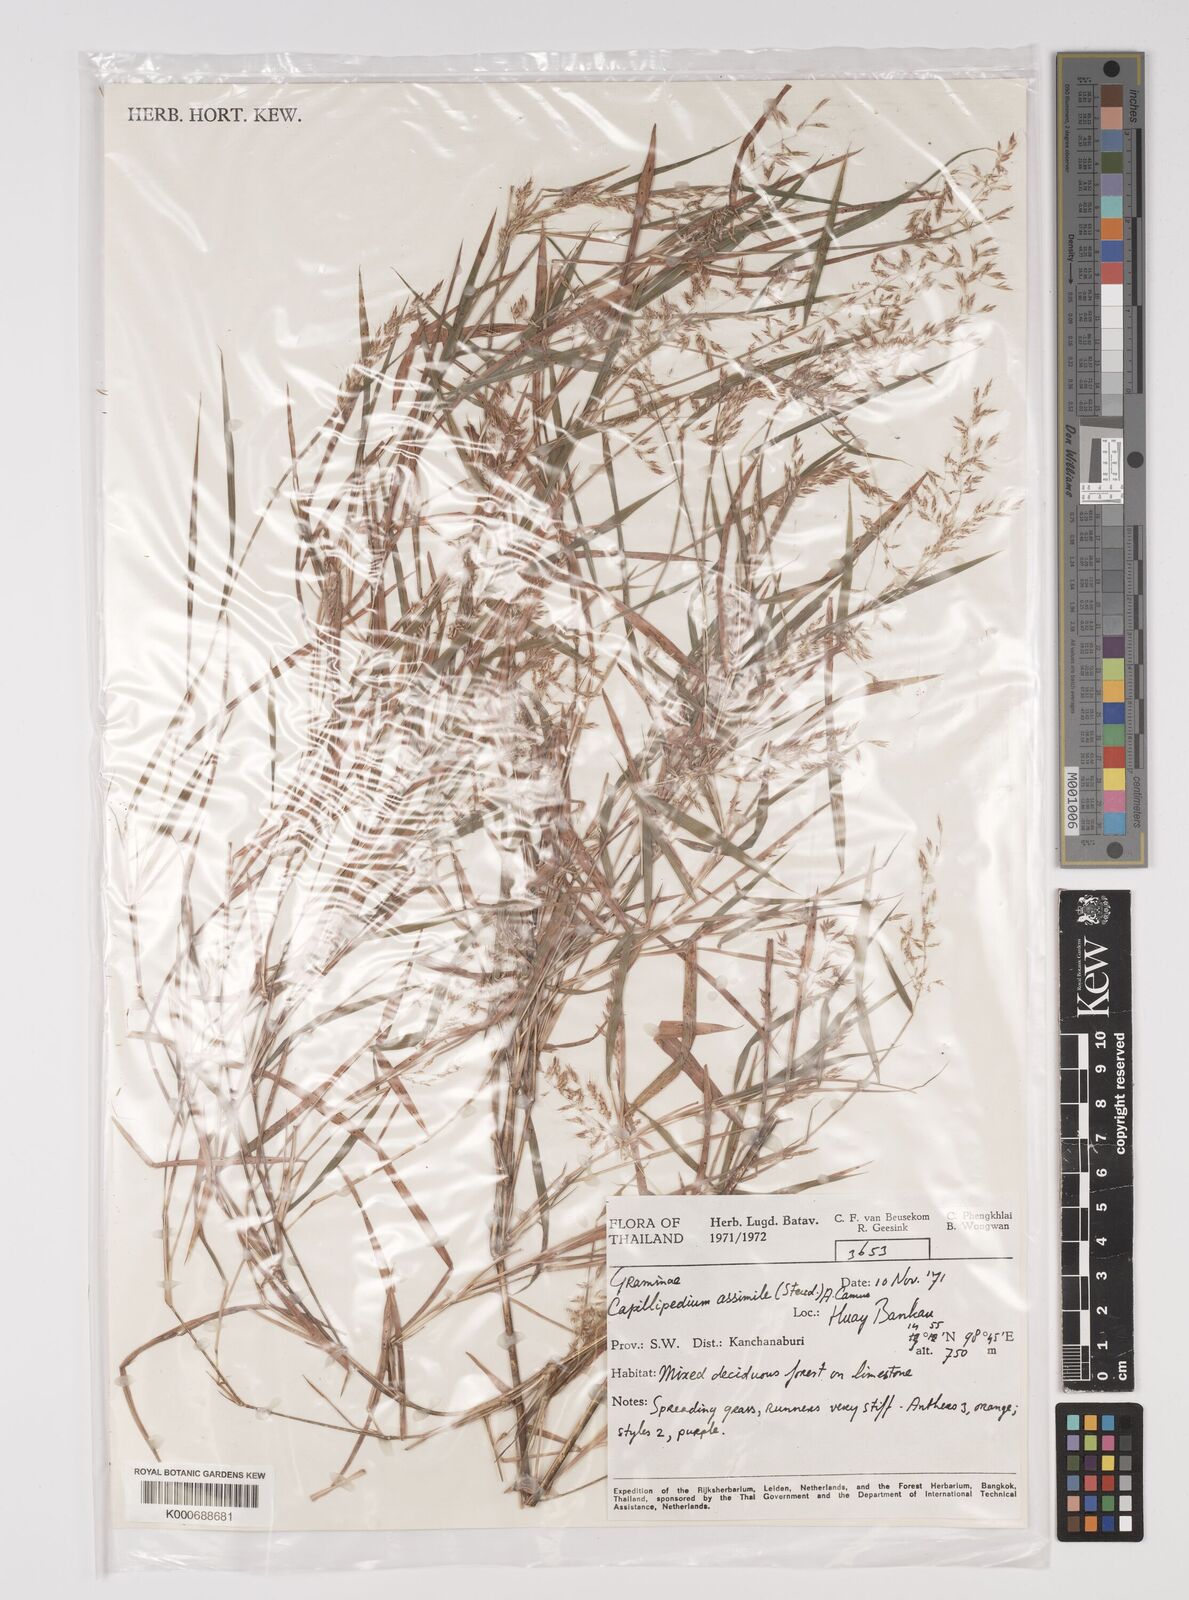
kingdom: Plantae
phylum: Tracheophyta
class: Liliopsida
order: Poales
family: Poaceae
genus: Capillipedium
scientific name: Capillipedium assimile
